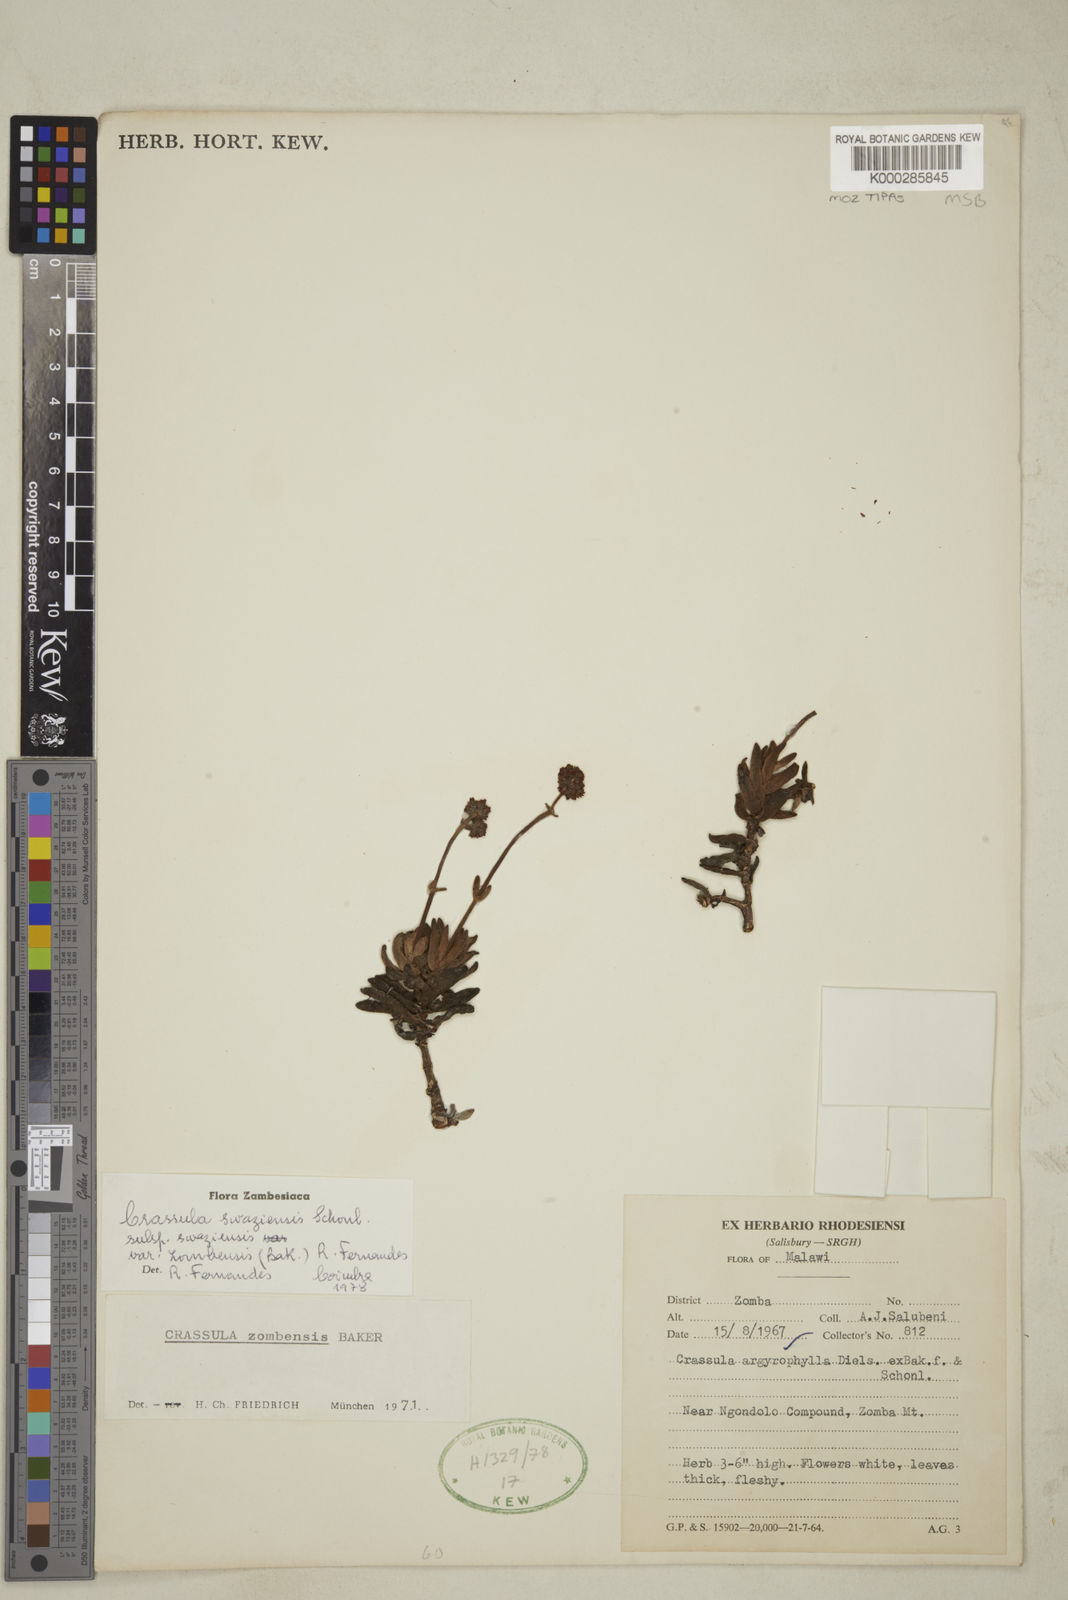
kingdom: Plantae
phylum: Tracheophyta
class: Magnoliopsida
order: Saxifragales
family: Crassulaceae
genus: Crassula
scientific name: Crassula zombensis
